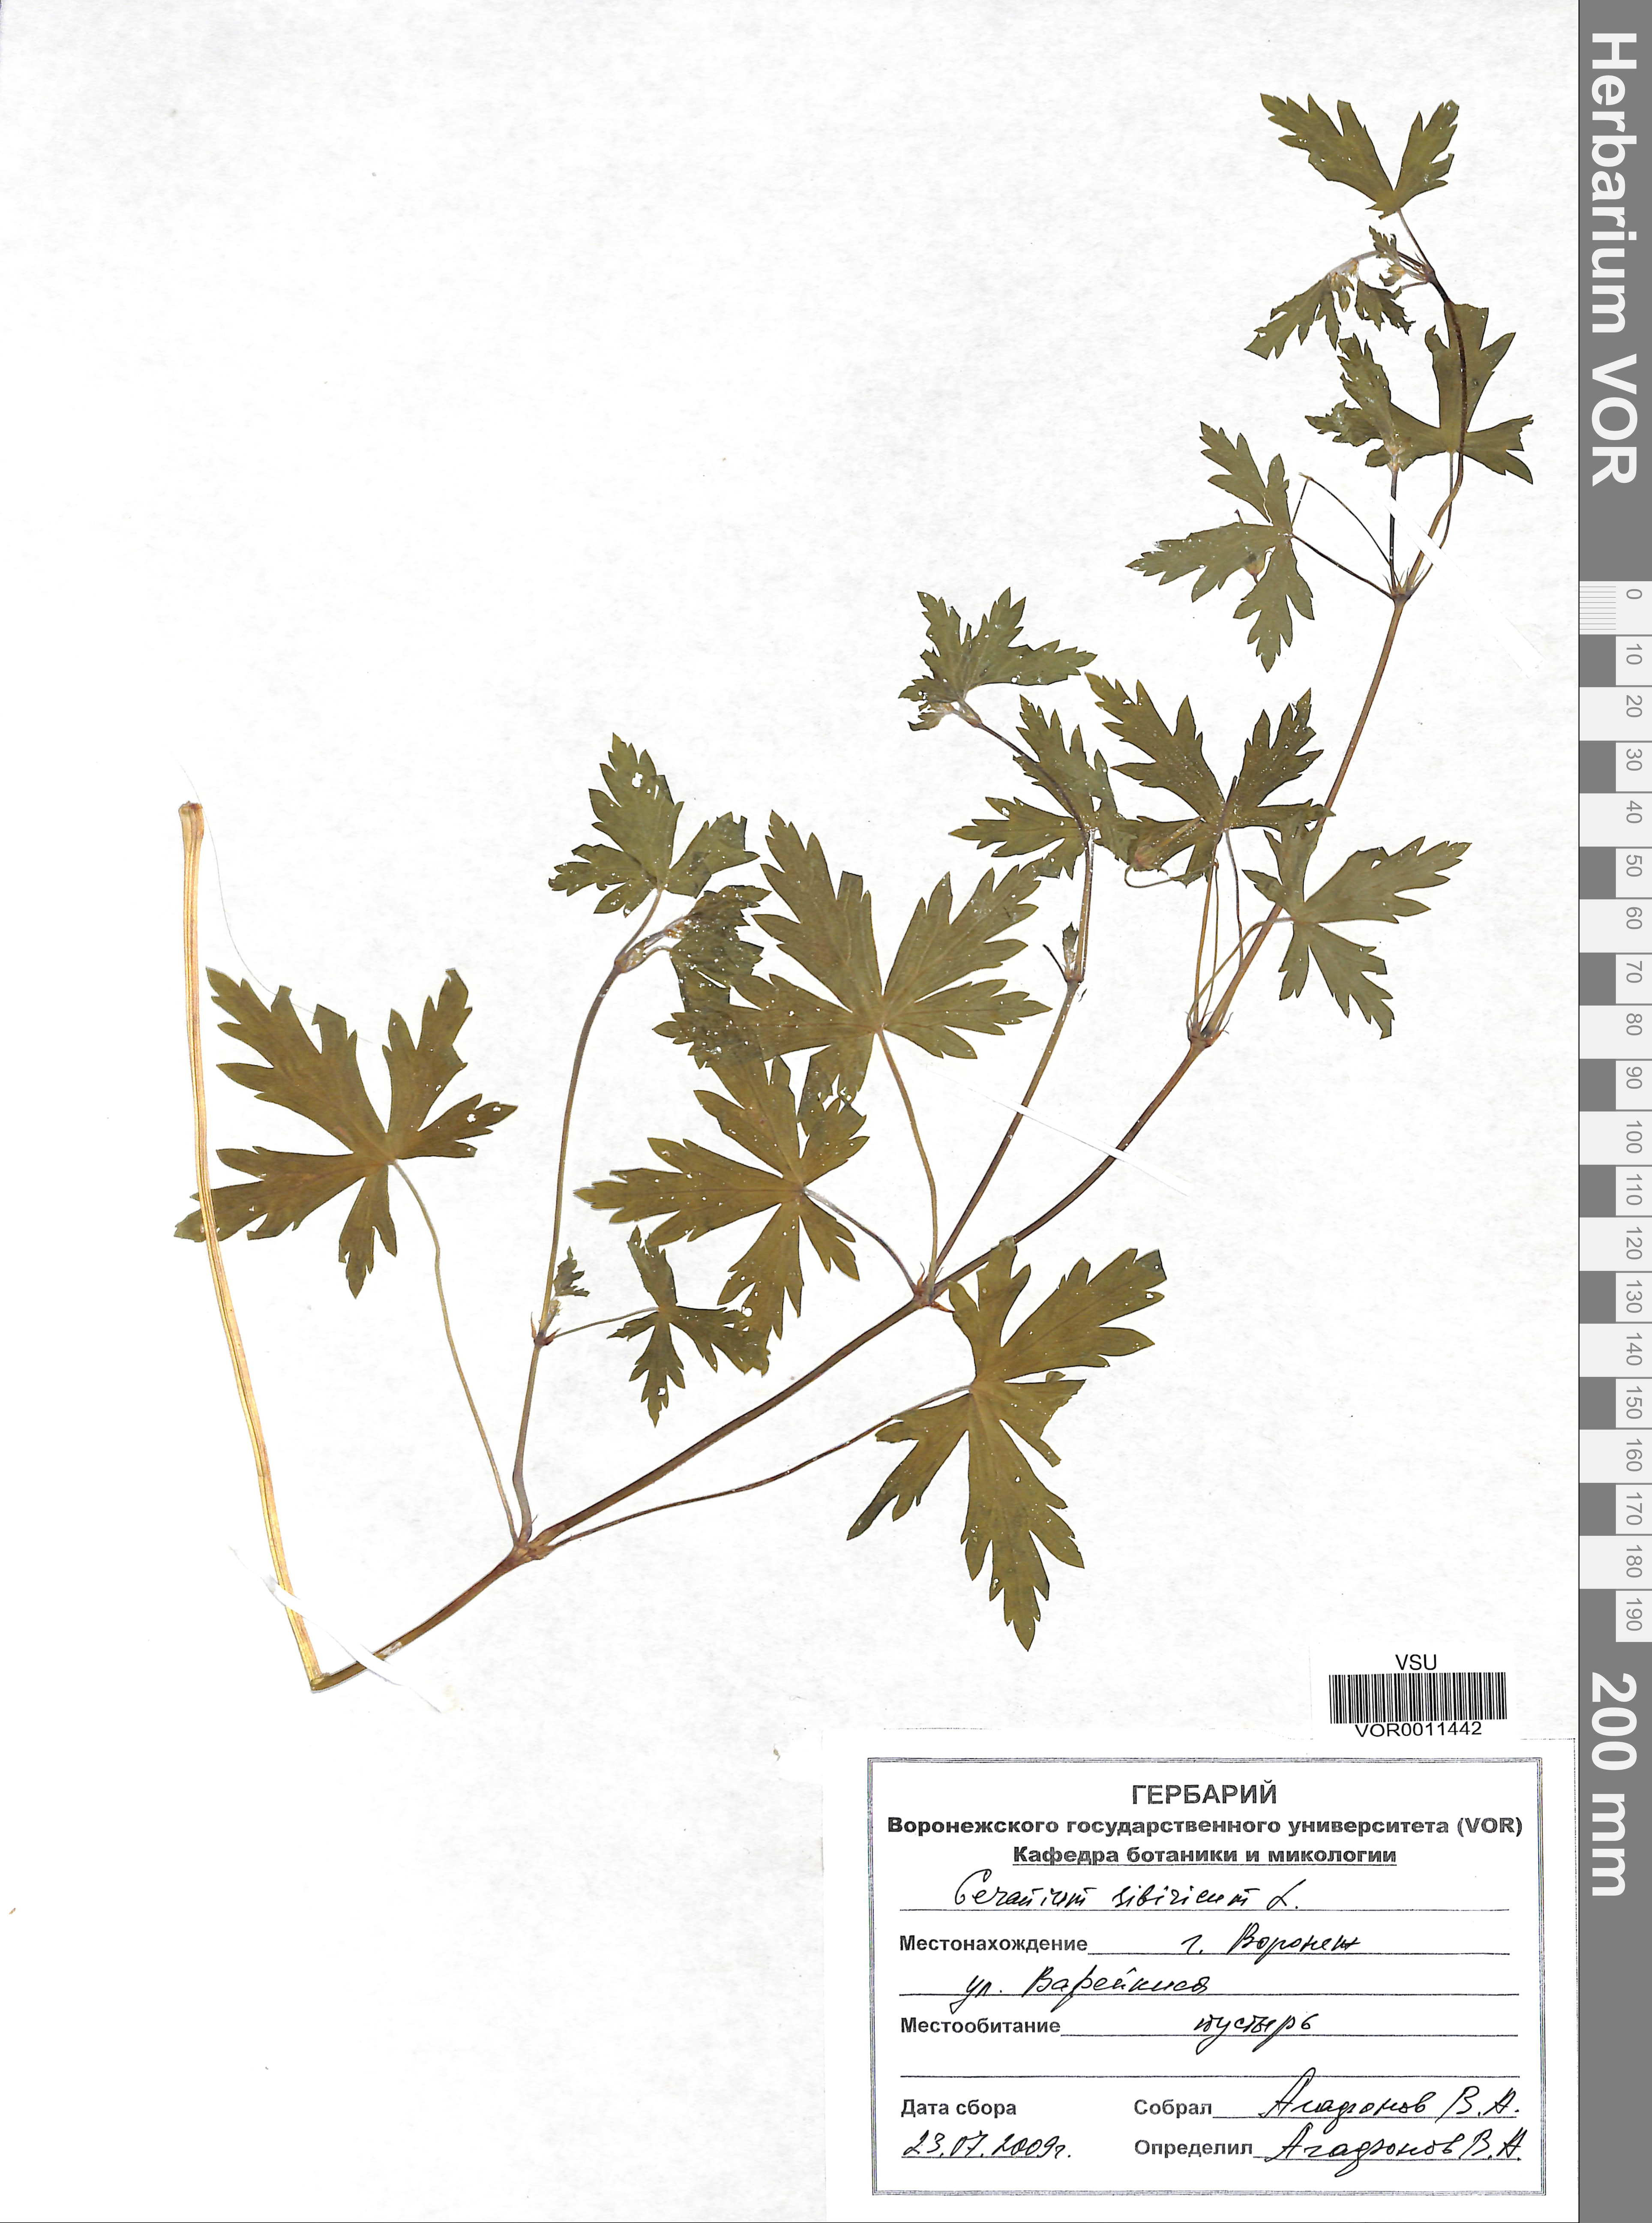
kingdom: Plantae
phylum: Tracheophyta
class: Magnoliopsida
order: Geraniales
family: Geraniaceae
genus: Geranium
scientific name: Geranium sibiricum
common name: Siberian crane's-bill
